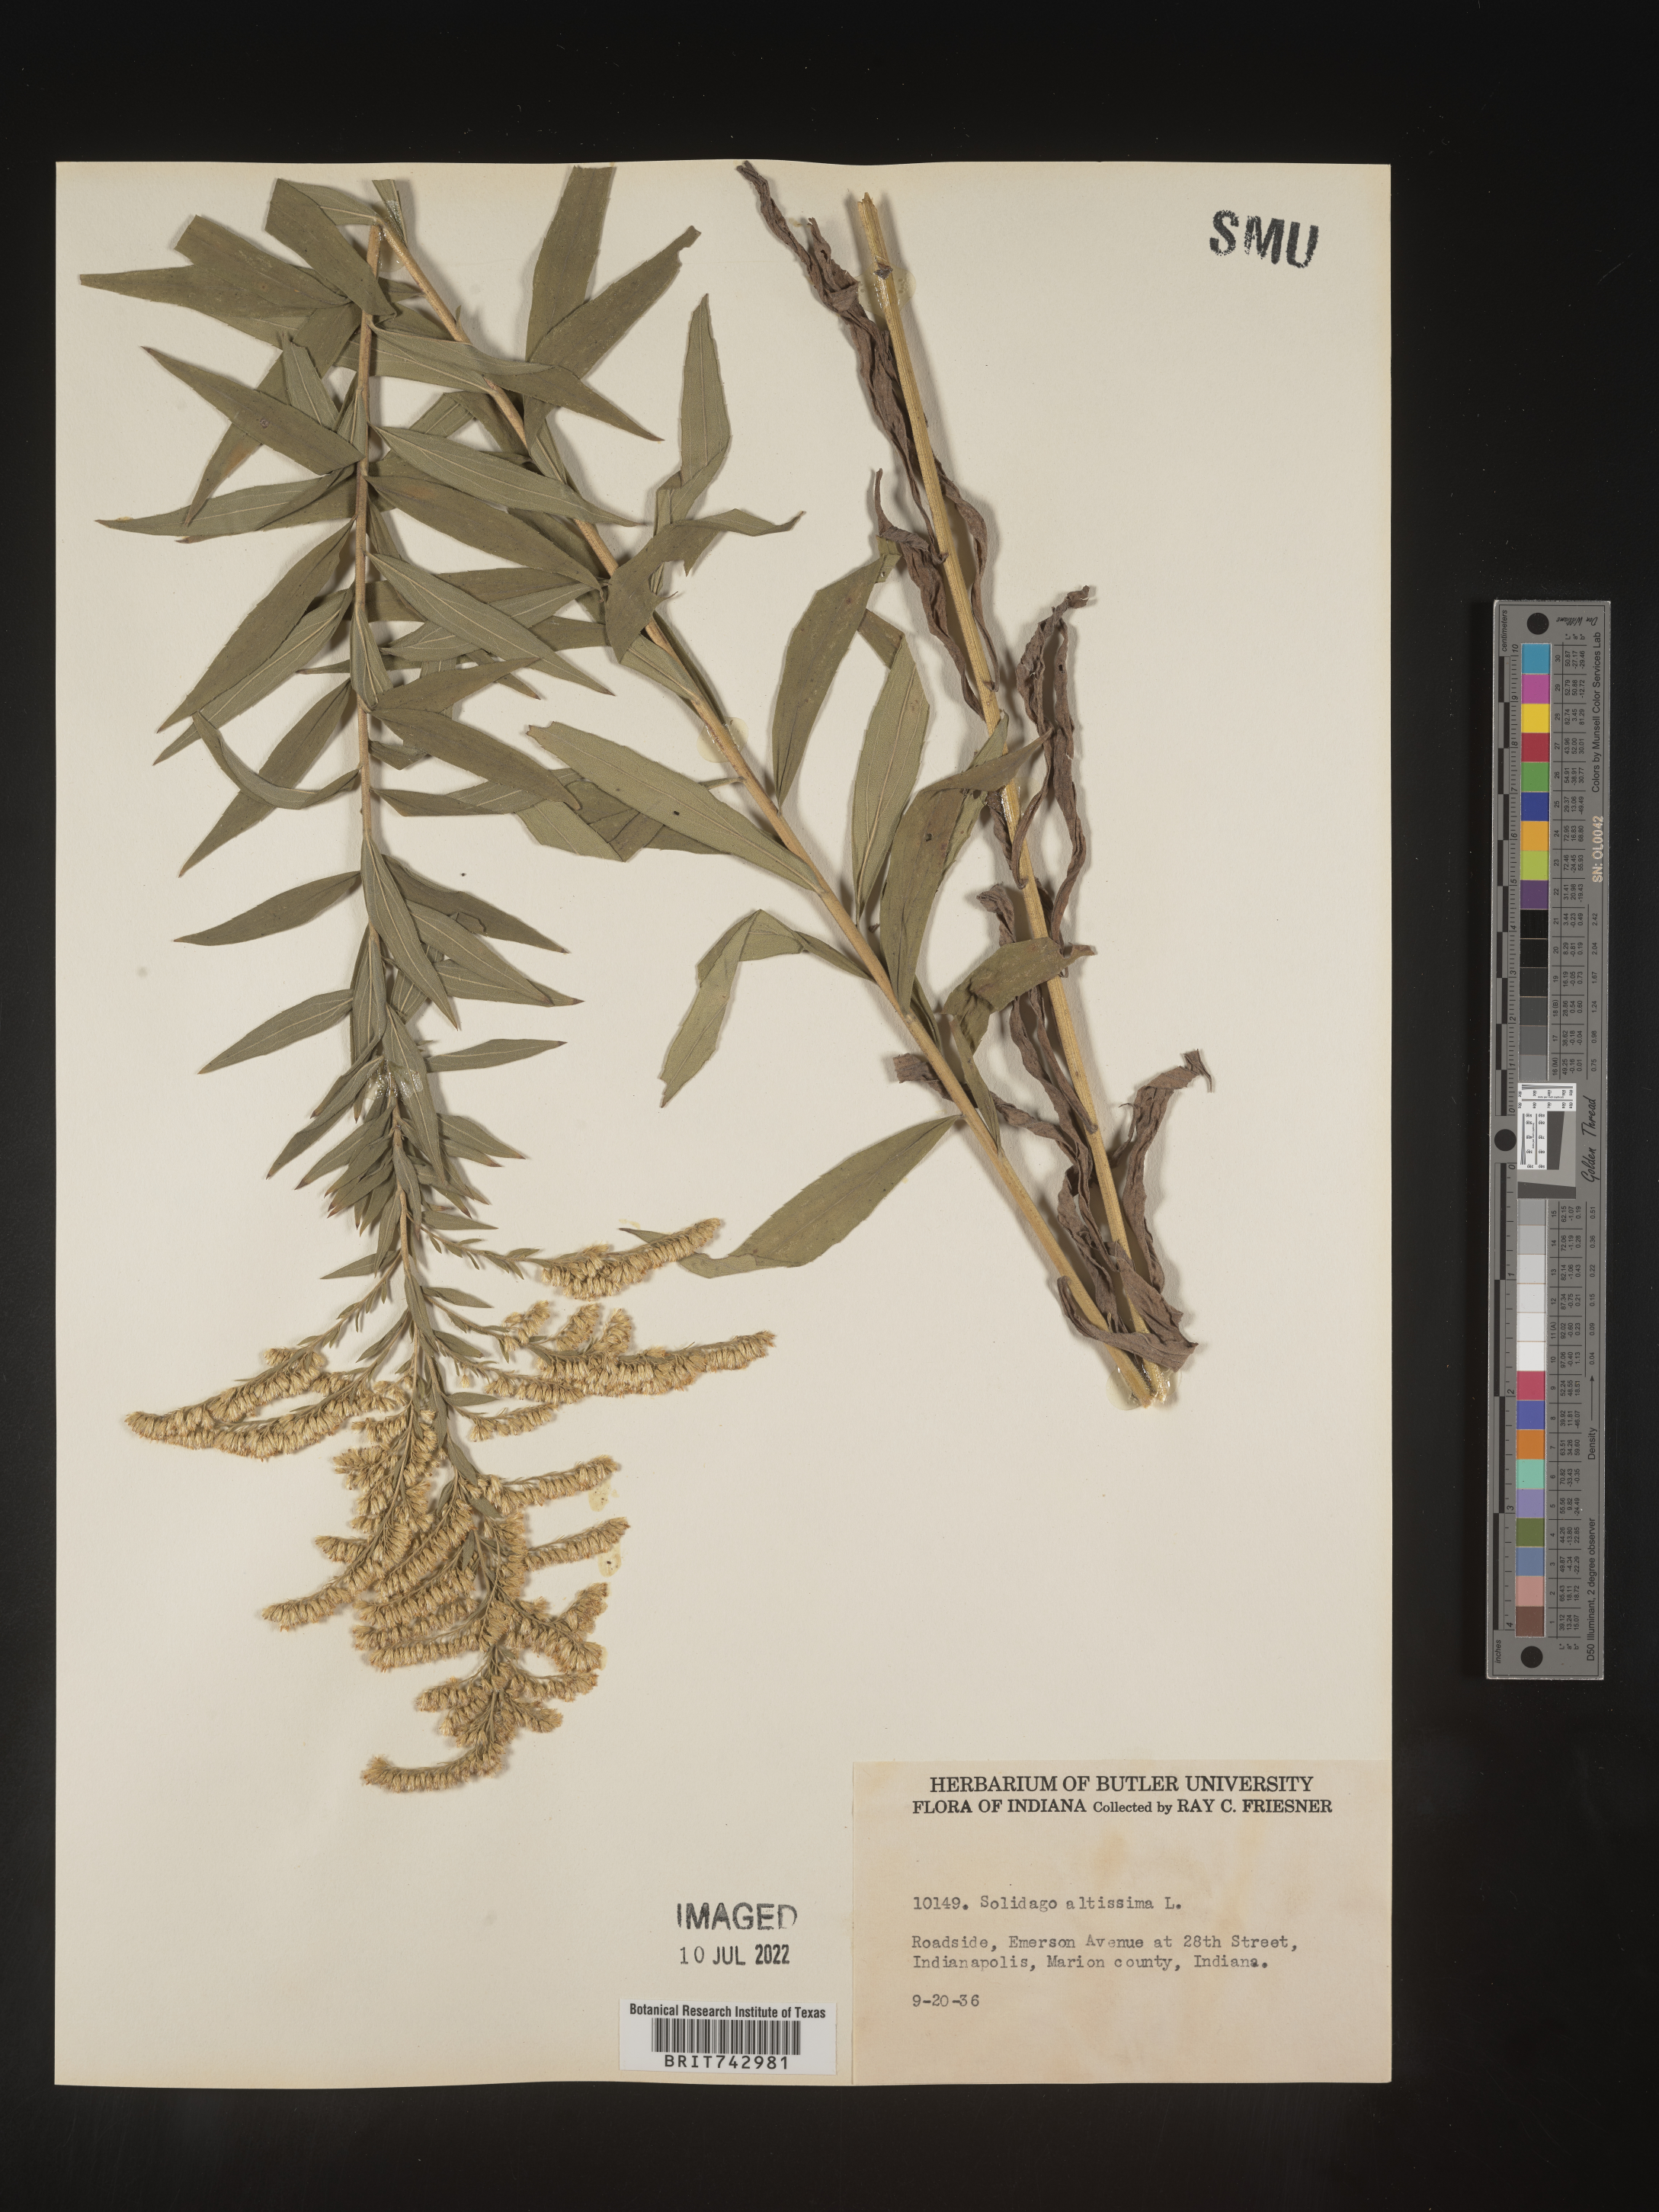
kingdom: Plantae
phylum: Tracheophyta
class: Magnoliopsida
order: Asterales
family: Asteraceae
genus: Solidago
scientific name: Solidago altissima
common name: Late goldenrod
